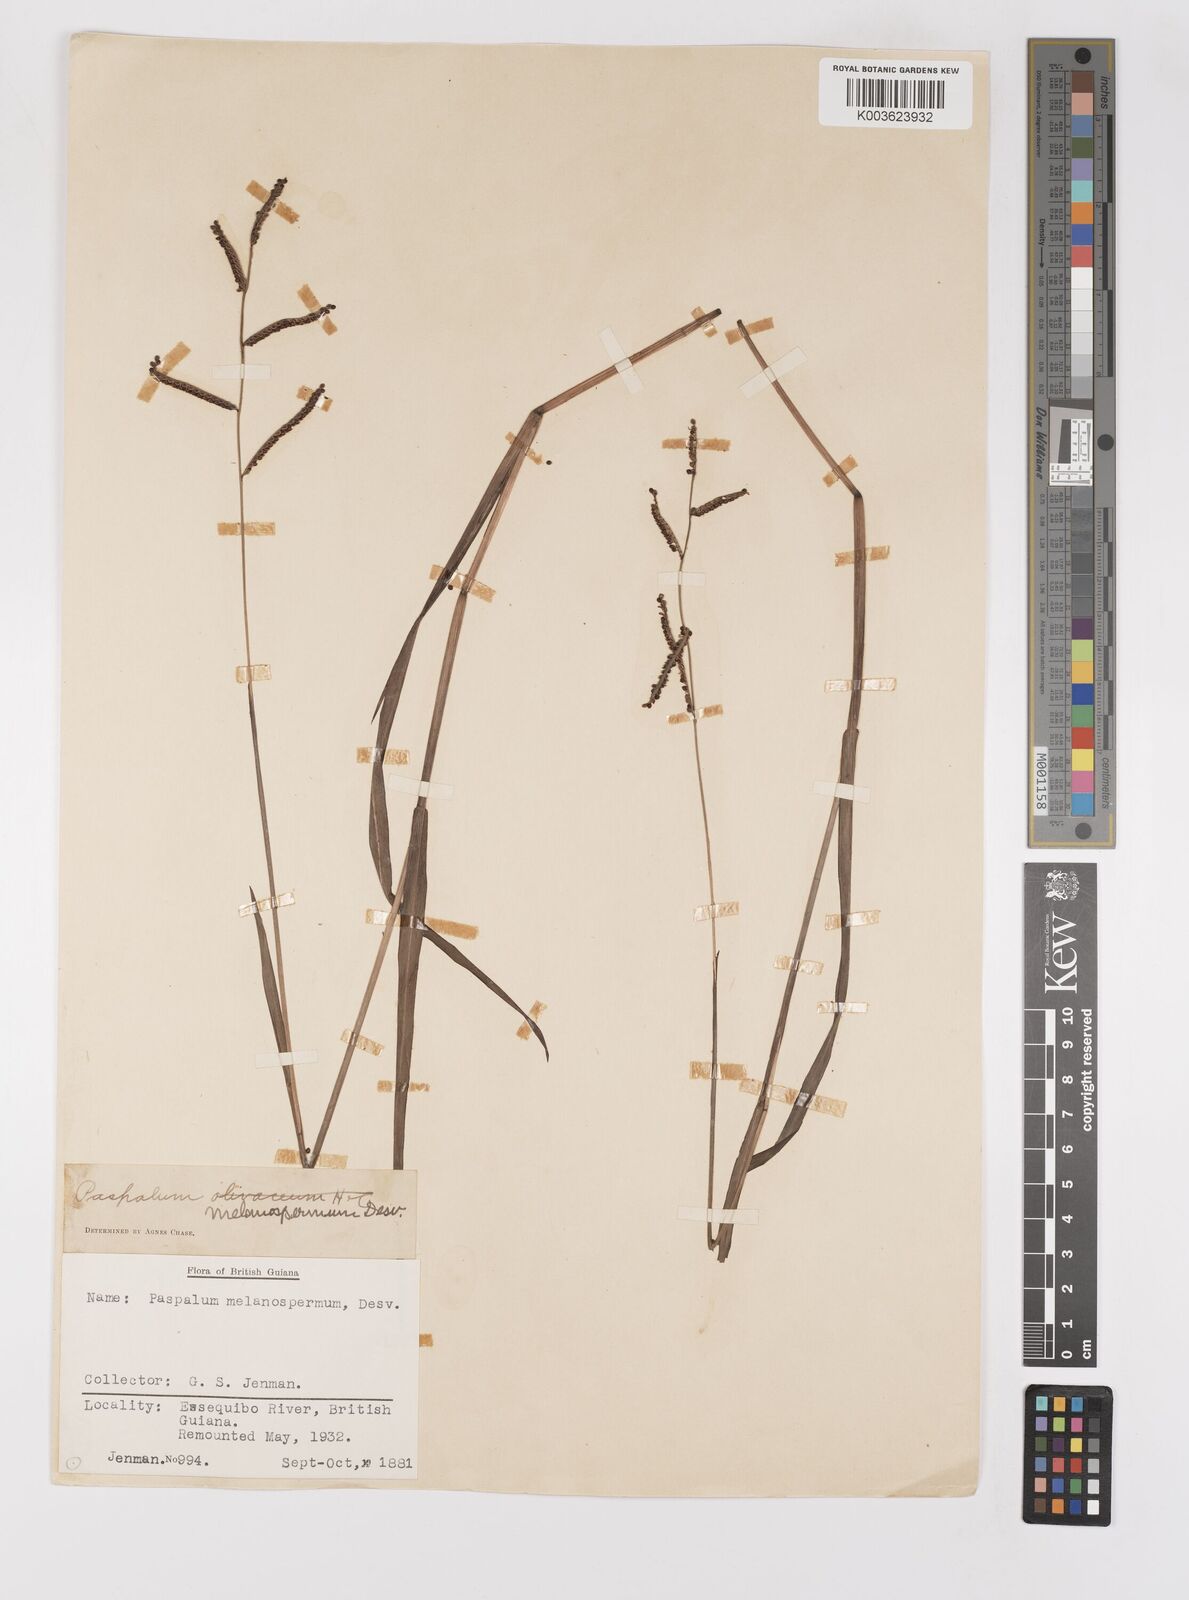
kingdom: Plantae
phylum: Tracheophyta
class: Liliopsida
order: Poales
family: Poaceae
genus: Paspalum
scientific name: Paspalum melanospermum
